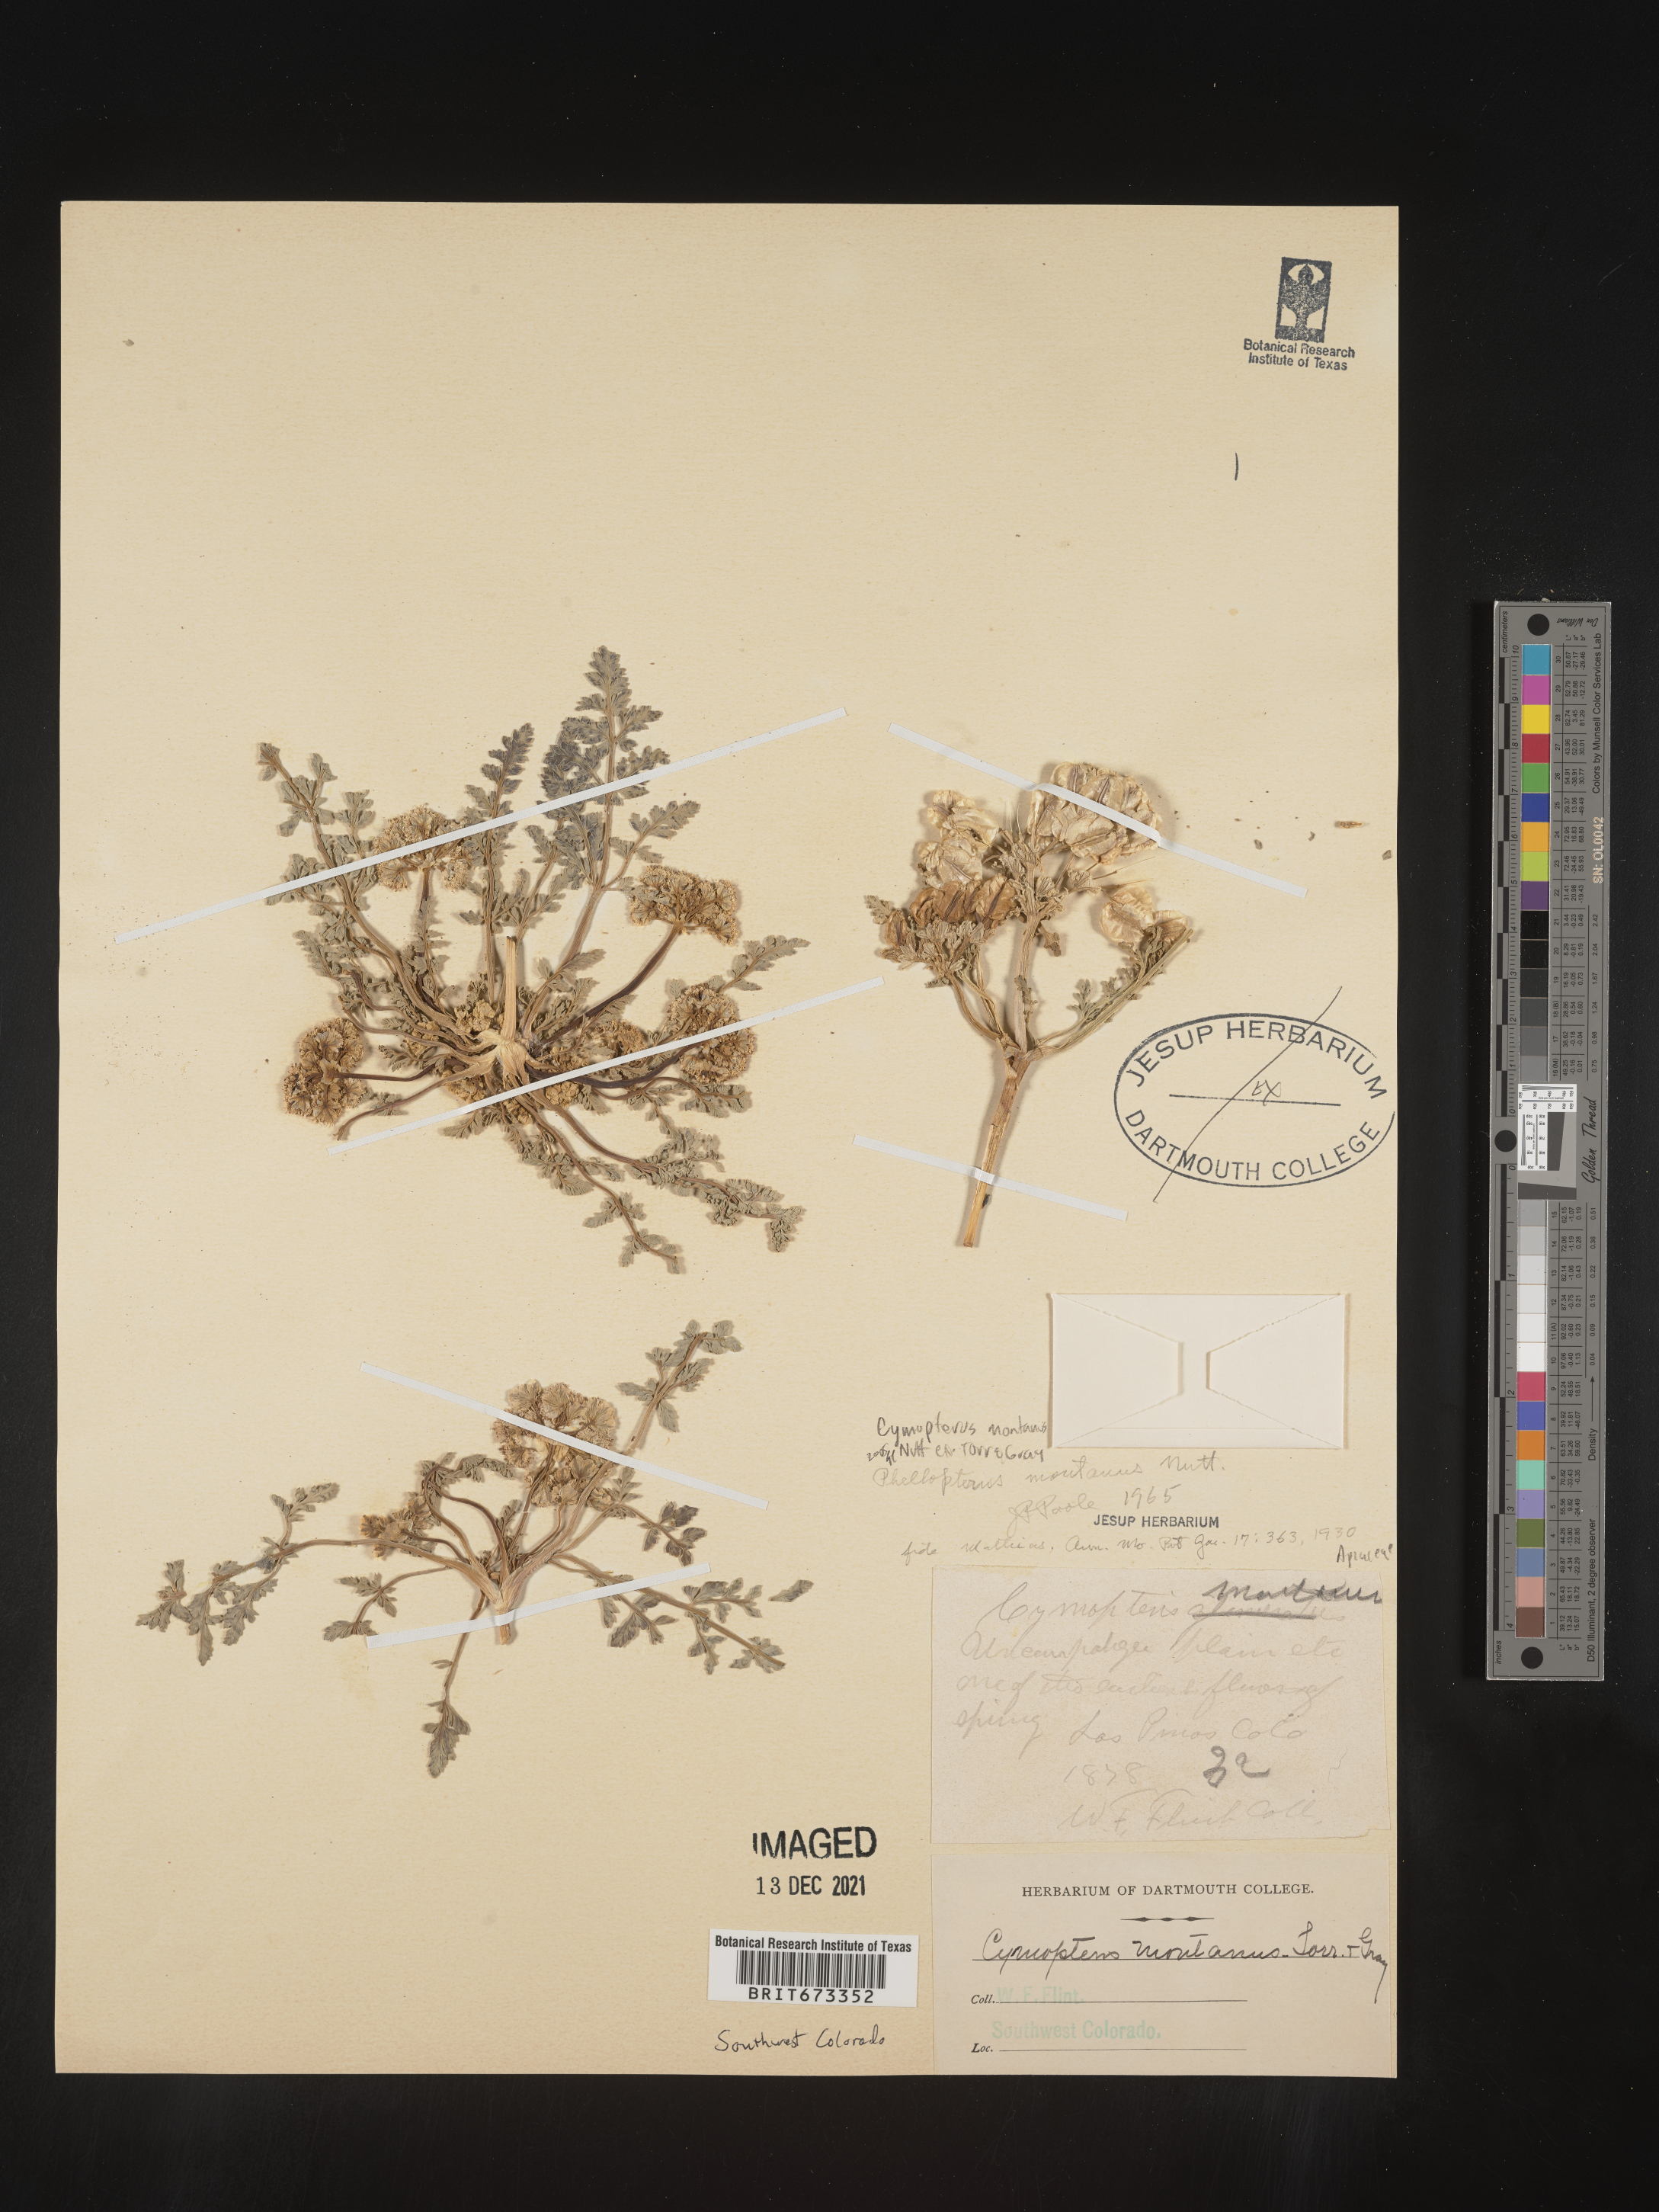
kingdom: Plantae
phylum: Tracheophyta
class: Magnoliopsida
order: Apiales
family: Apiaceae
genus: Vesper
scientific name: Vesper montanus
